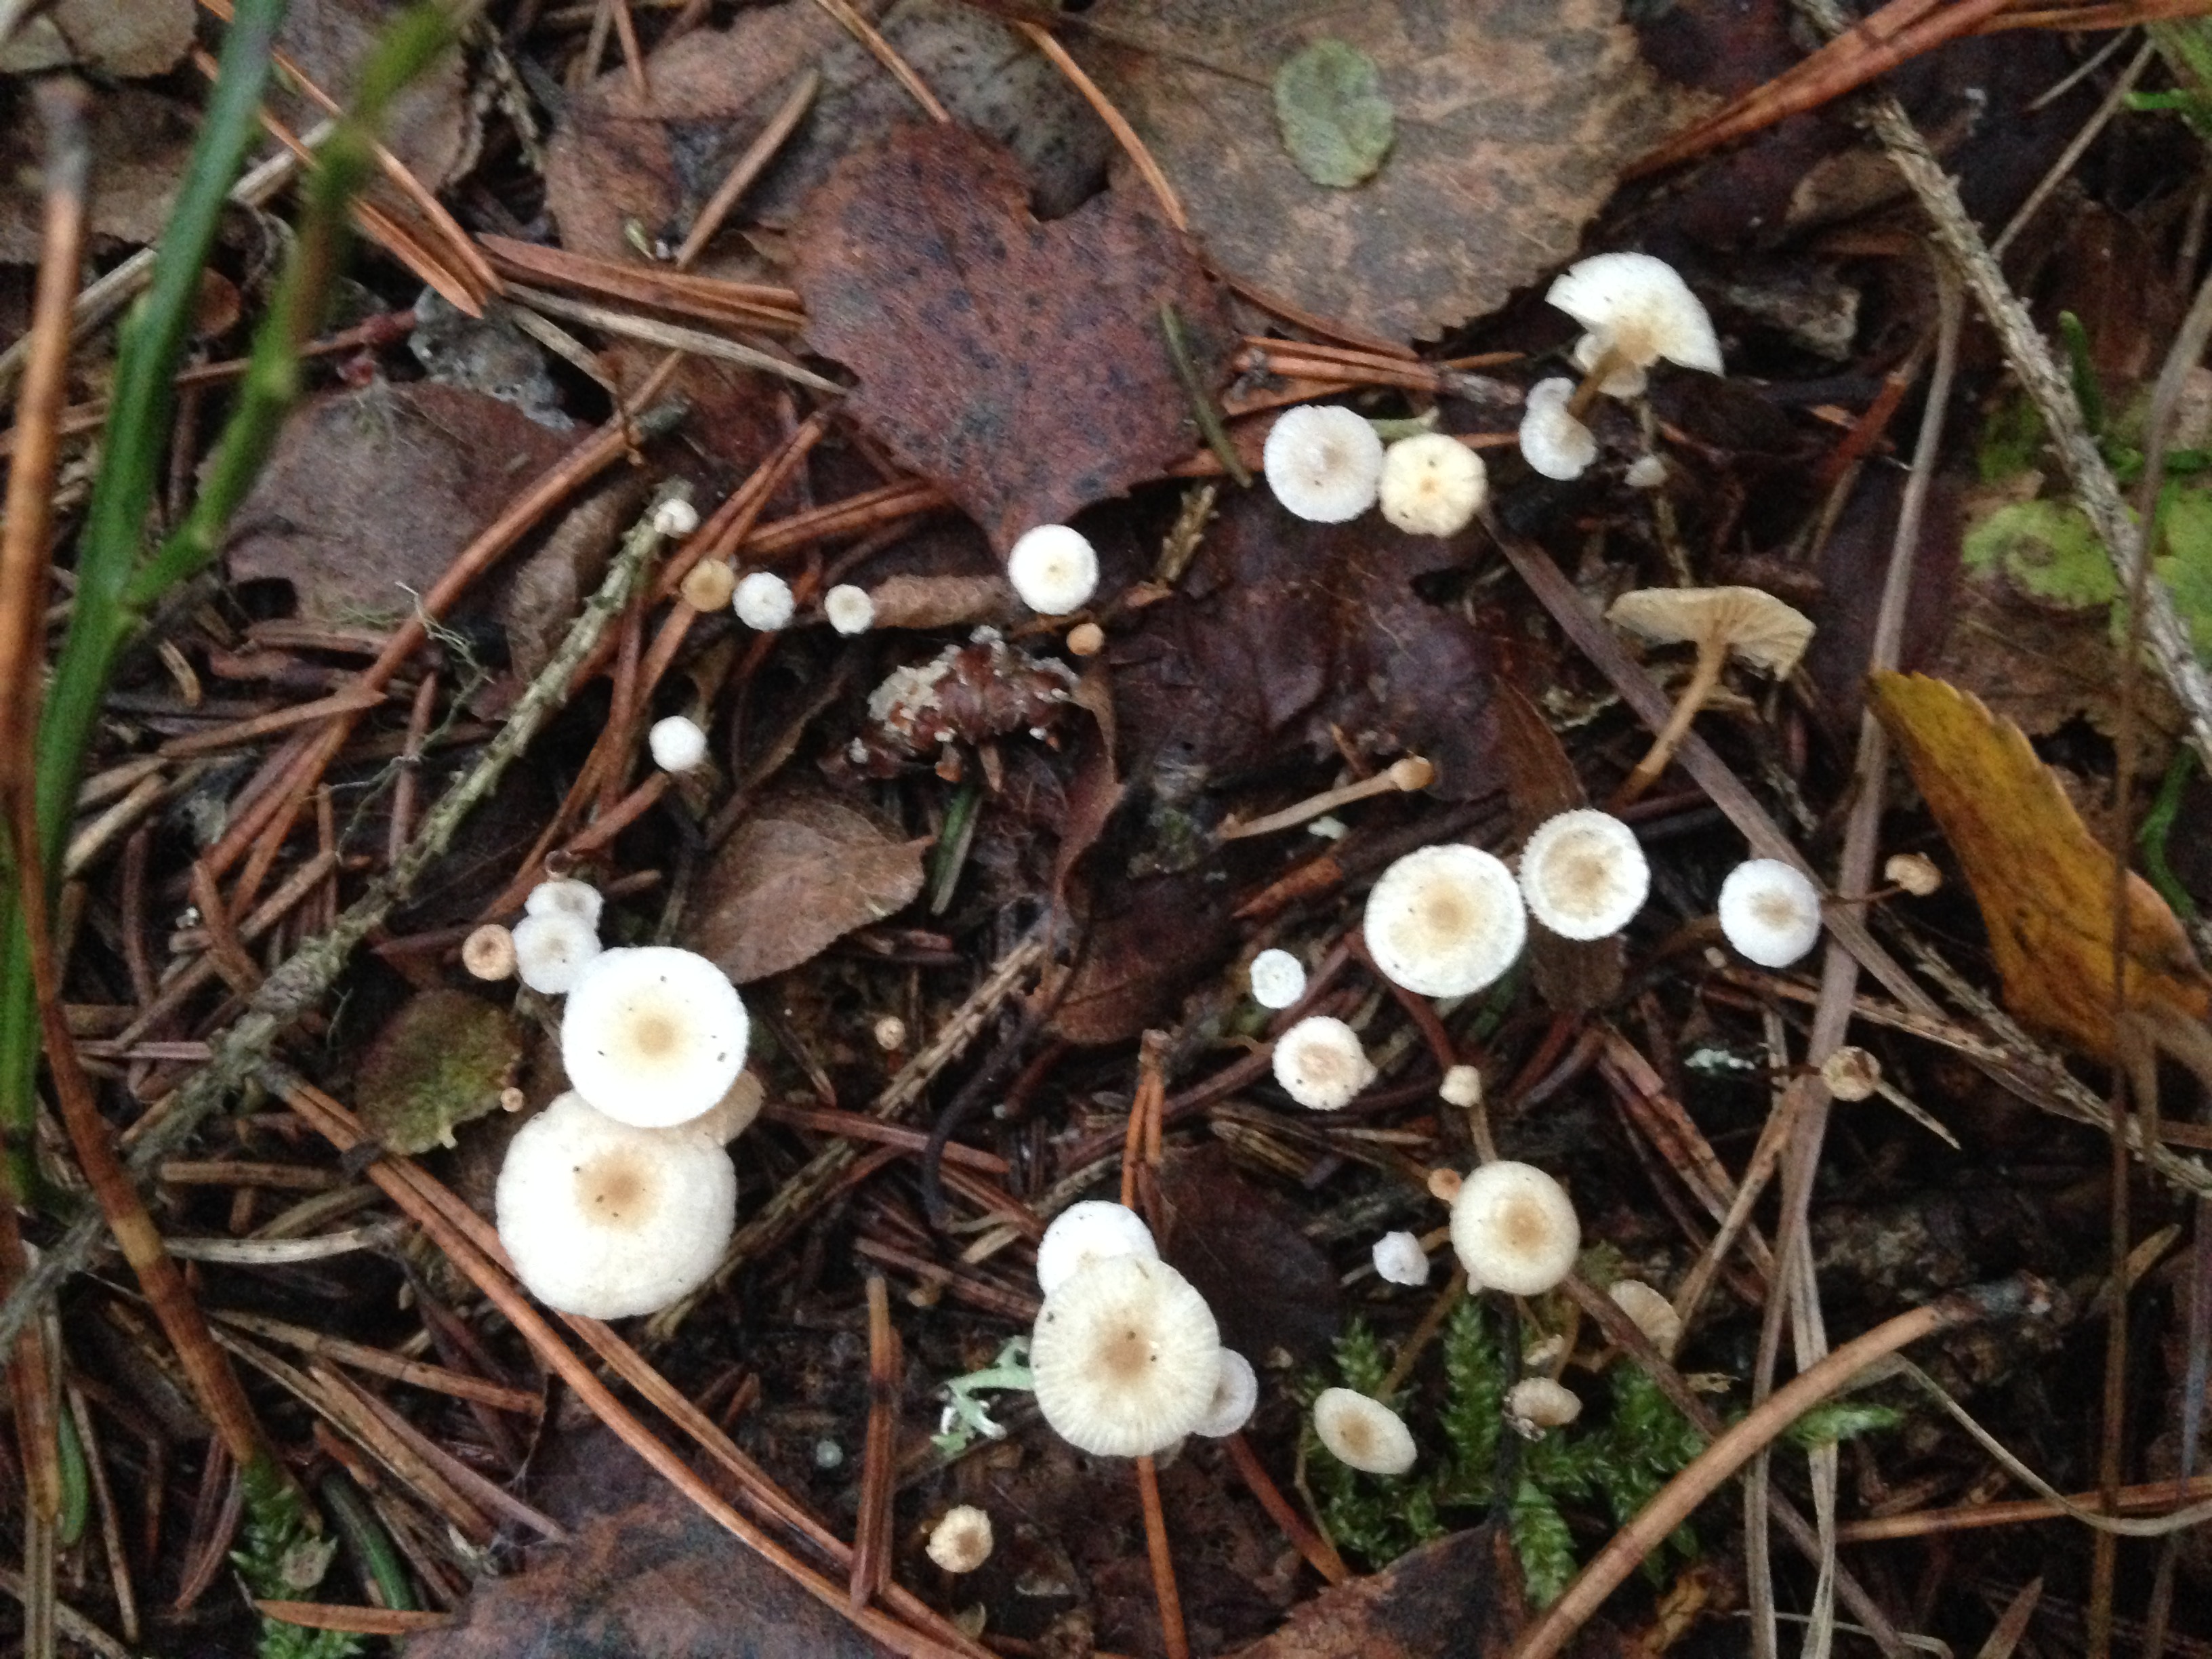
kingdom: Fungi
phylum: Basidiomycota
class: Agaricomycetes
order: Agaricales
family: Tricholomataceae
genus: Collybia
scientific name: Collybia tuberosa
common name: Lentil shanklet
